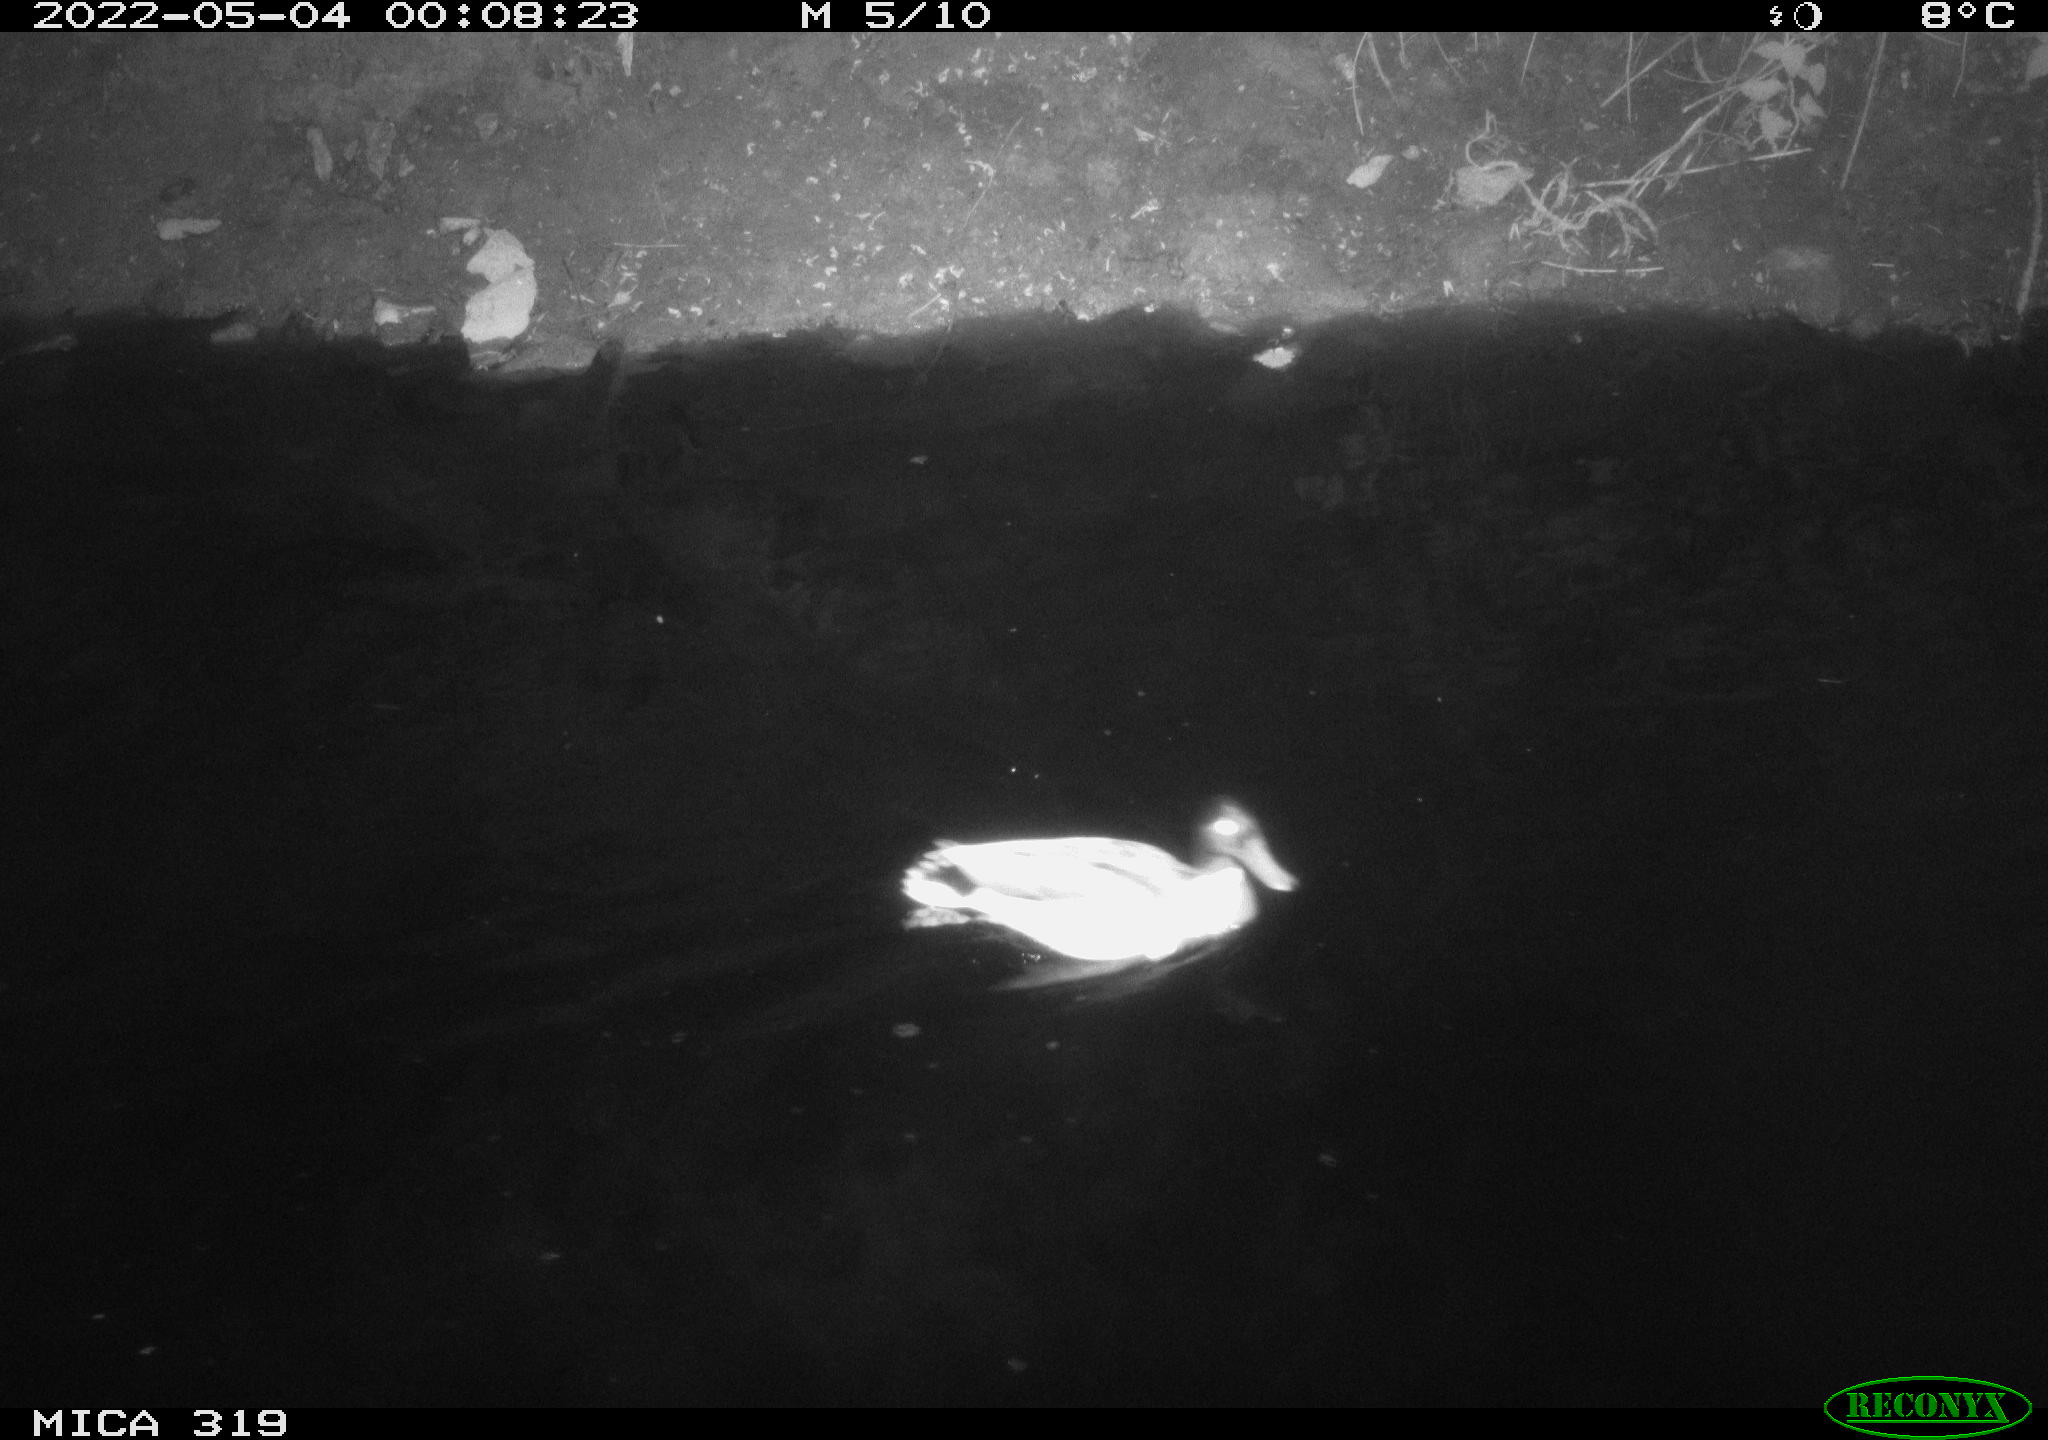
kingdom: Animalia
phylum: Chordata
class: Aves
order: Anseriformes
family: Anatidae
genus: Anas
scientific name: Anas platyrhynchos
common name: Mallard
